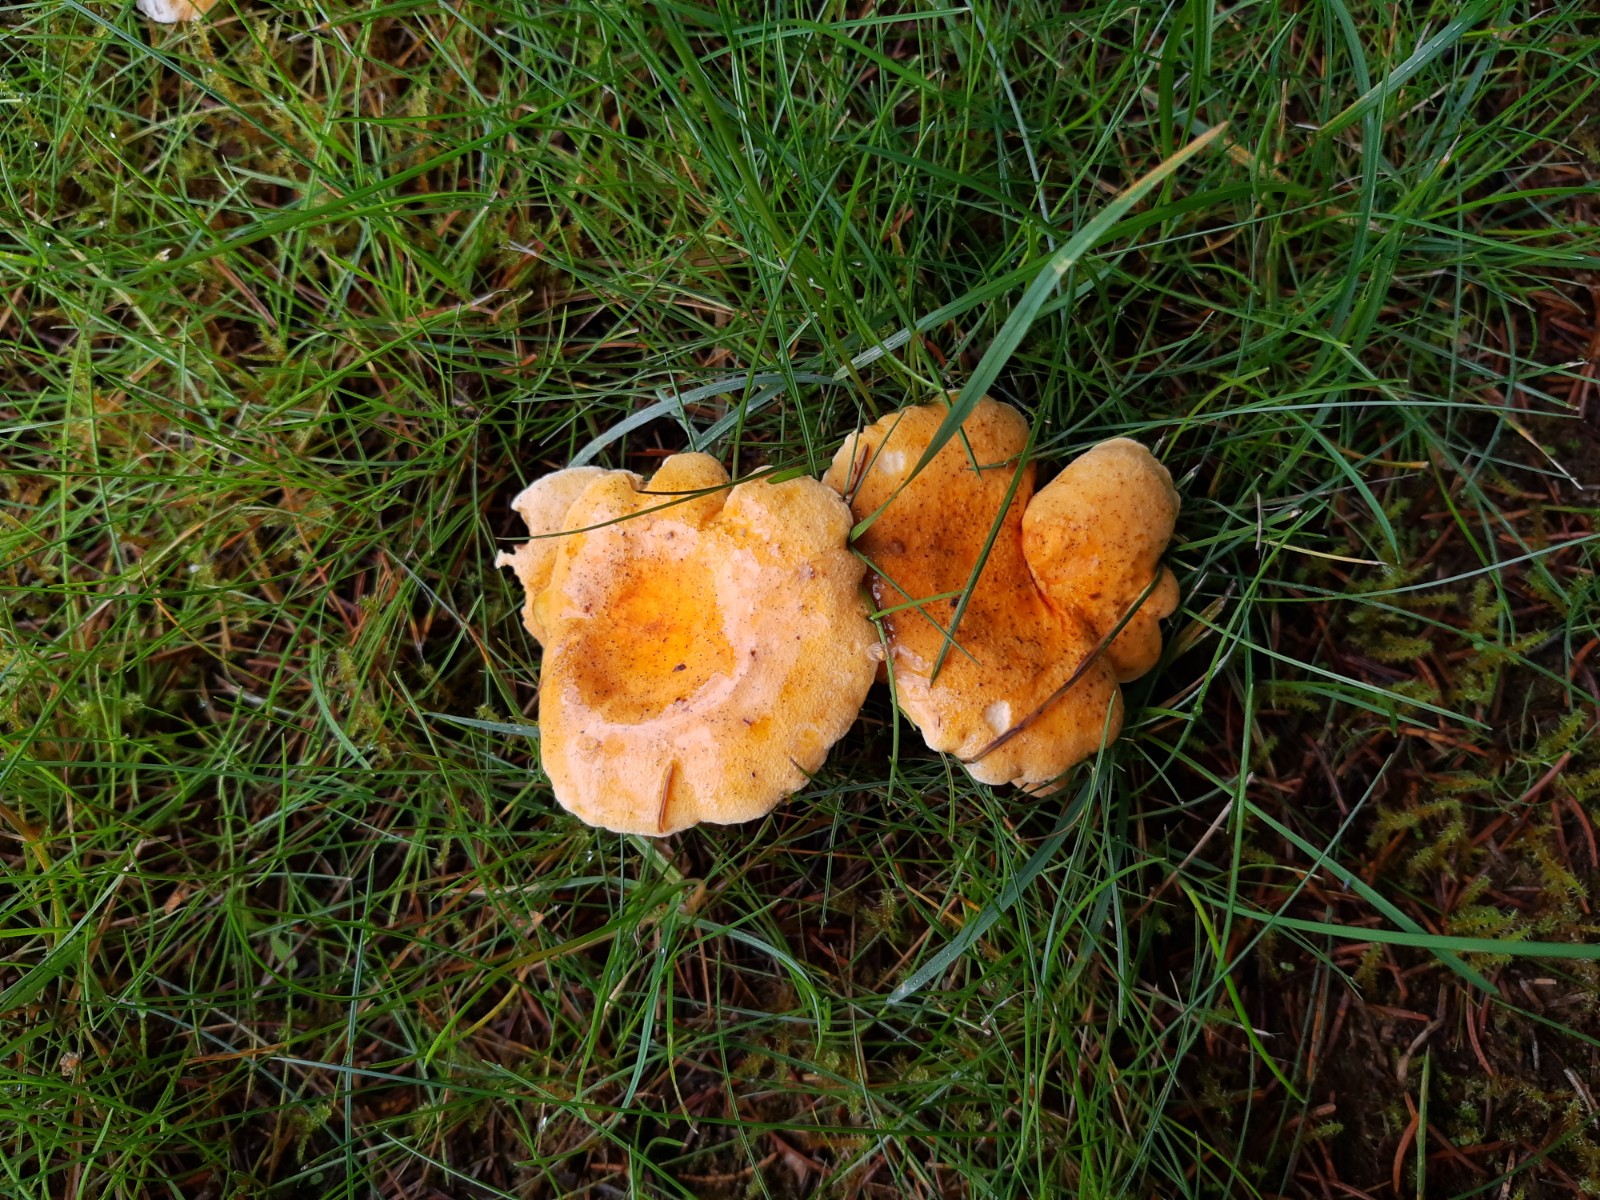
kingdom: Fungi
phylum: Basidiomycota
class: Agaricomycetes
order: Boletales
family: Hygrophoropsidaceae
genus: Hygrophoropsis
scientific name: Hygrophoropsis aurantiaca
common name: almindelig orangekantarel
